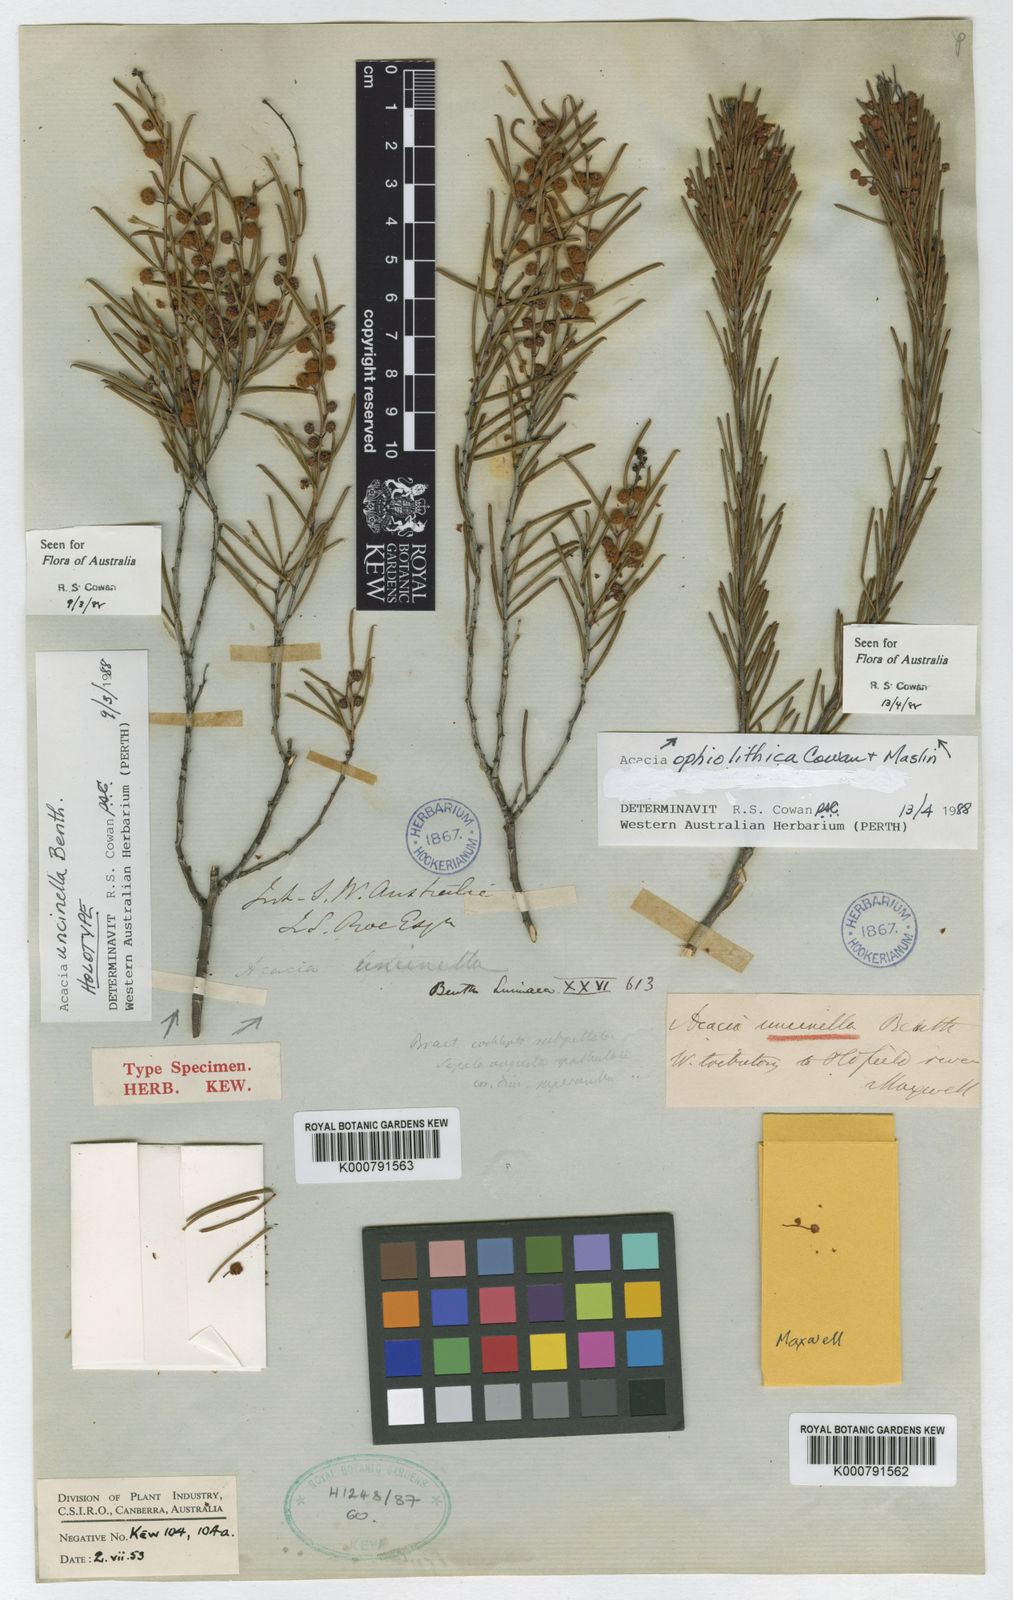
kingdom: Plantae
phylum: Tracheophyta
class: Magnoliopsida
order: Fabales
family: Fabaceae
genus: Acacia
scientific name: Acacia uncinella
